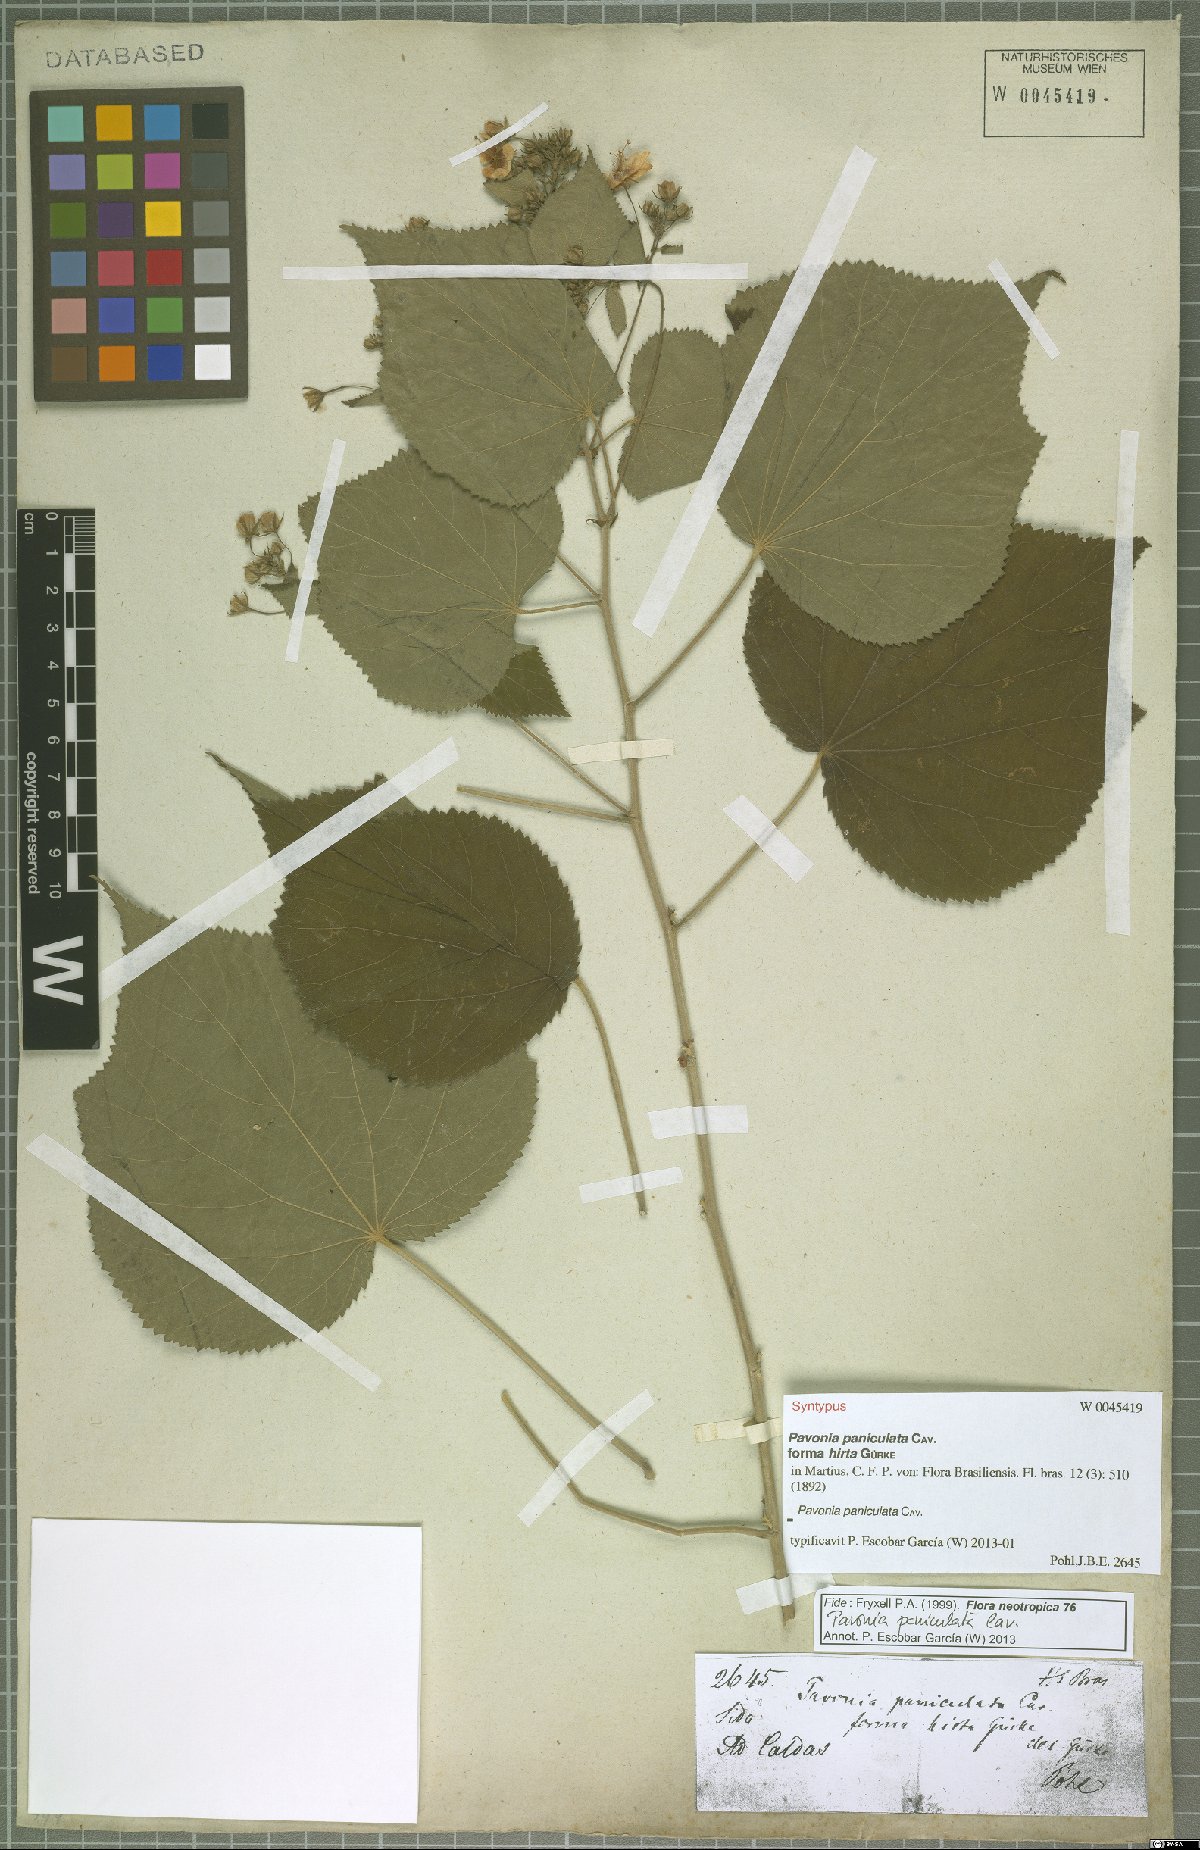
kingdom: Plantae
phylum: Tracheophyta
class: Magnoliopsida
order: Malvales
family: Malvaceae
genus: Pavonia
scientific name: Pavonia paniculata
